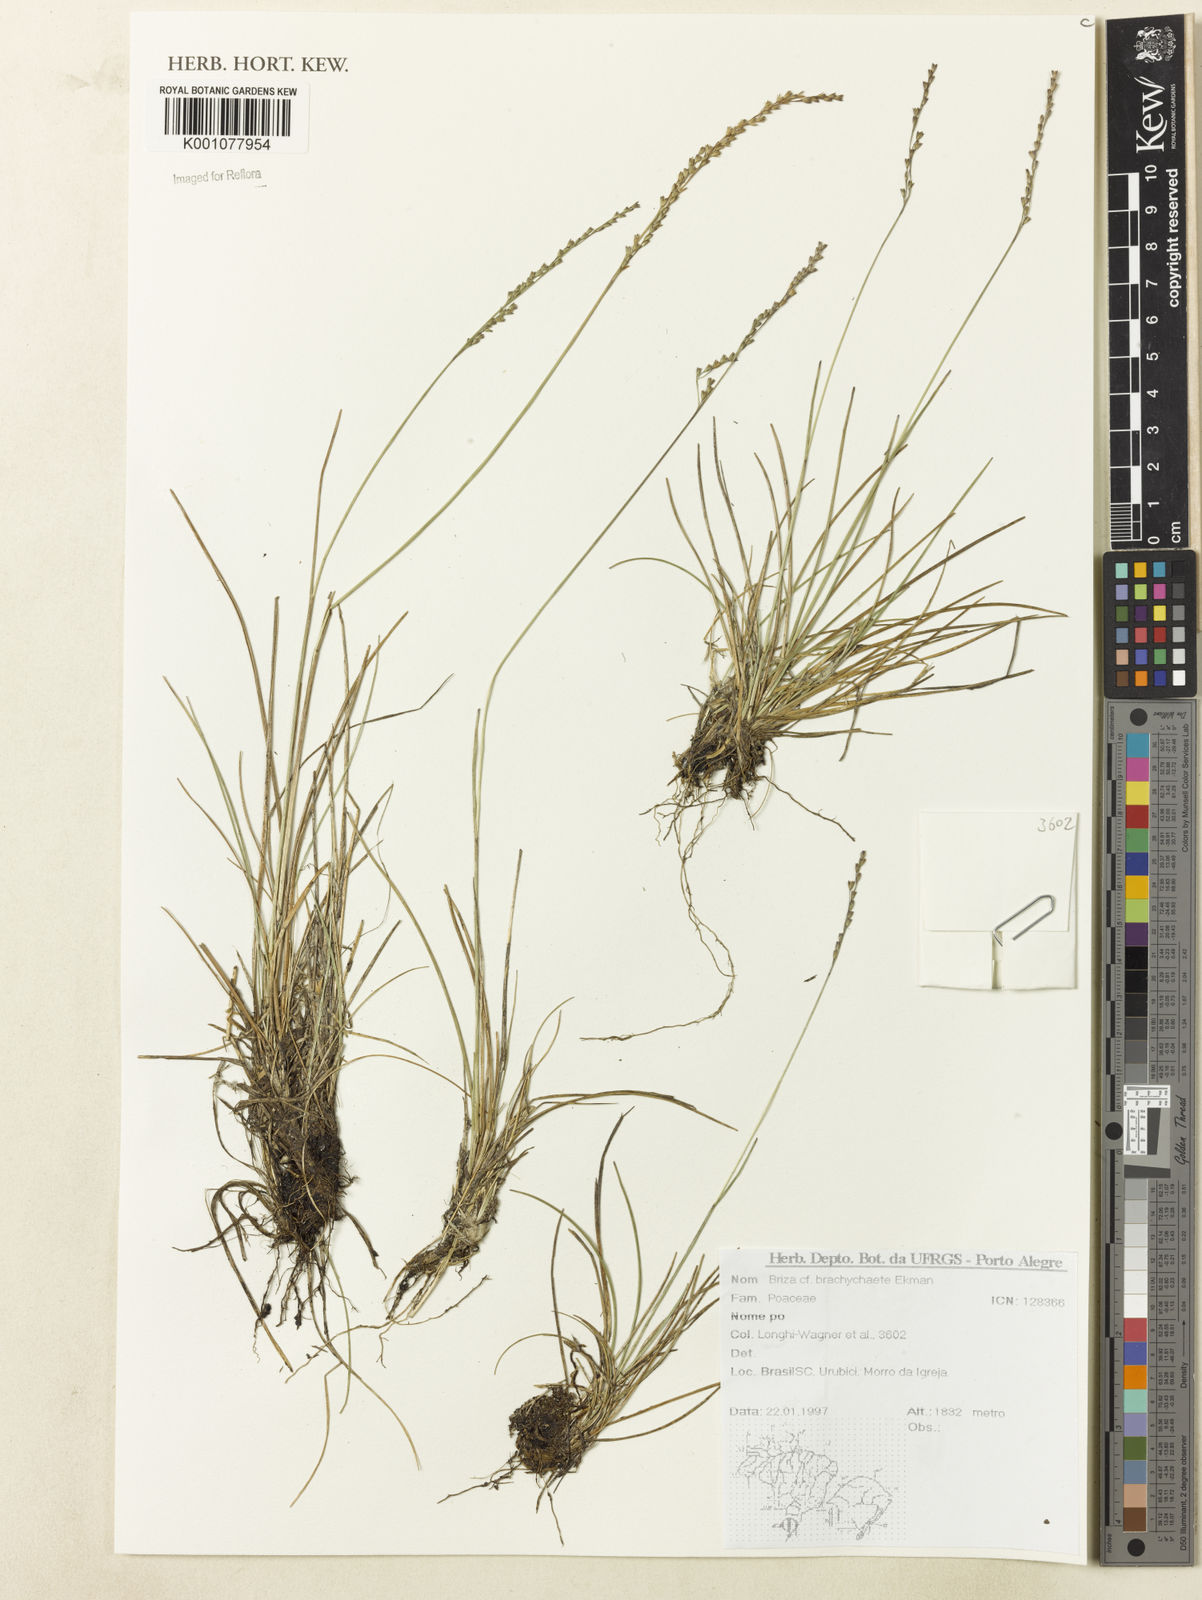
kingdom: Plantae
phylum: Tracheophyta
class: Liliopsida
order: Poales
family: Poaceae
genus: Microbriza
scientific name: Microbriza brachychaete
